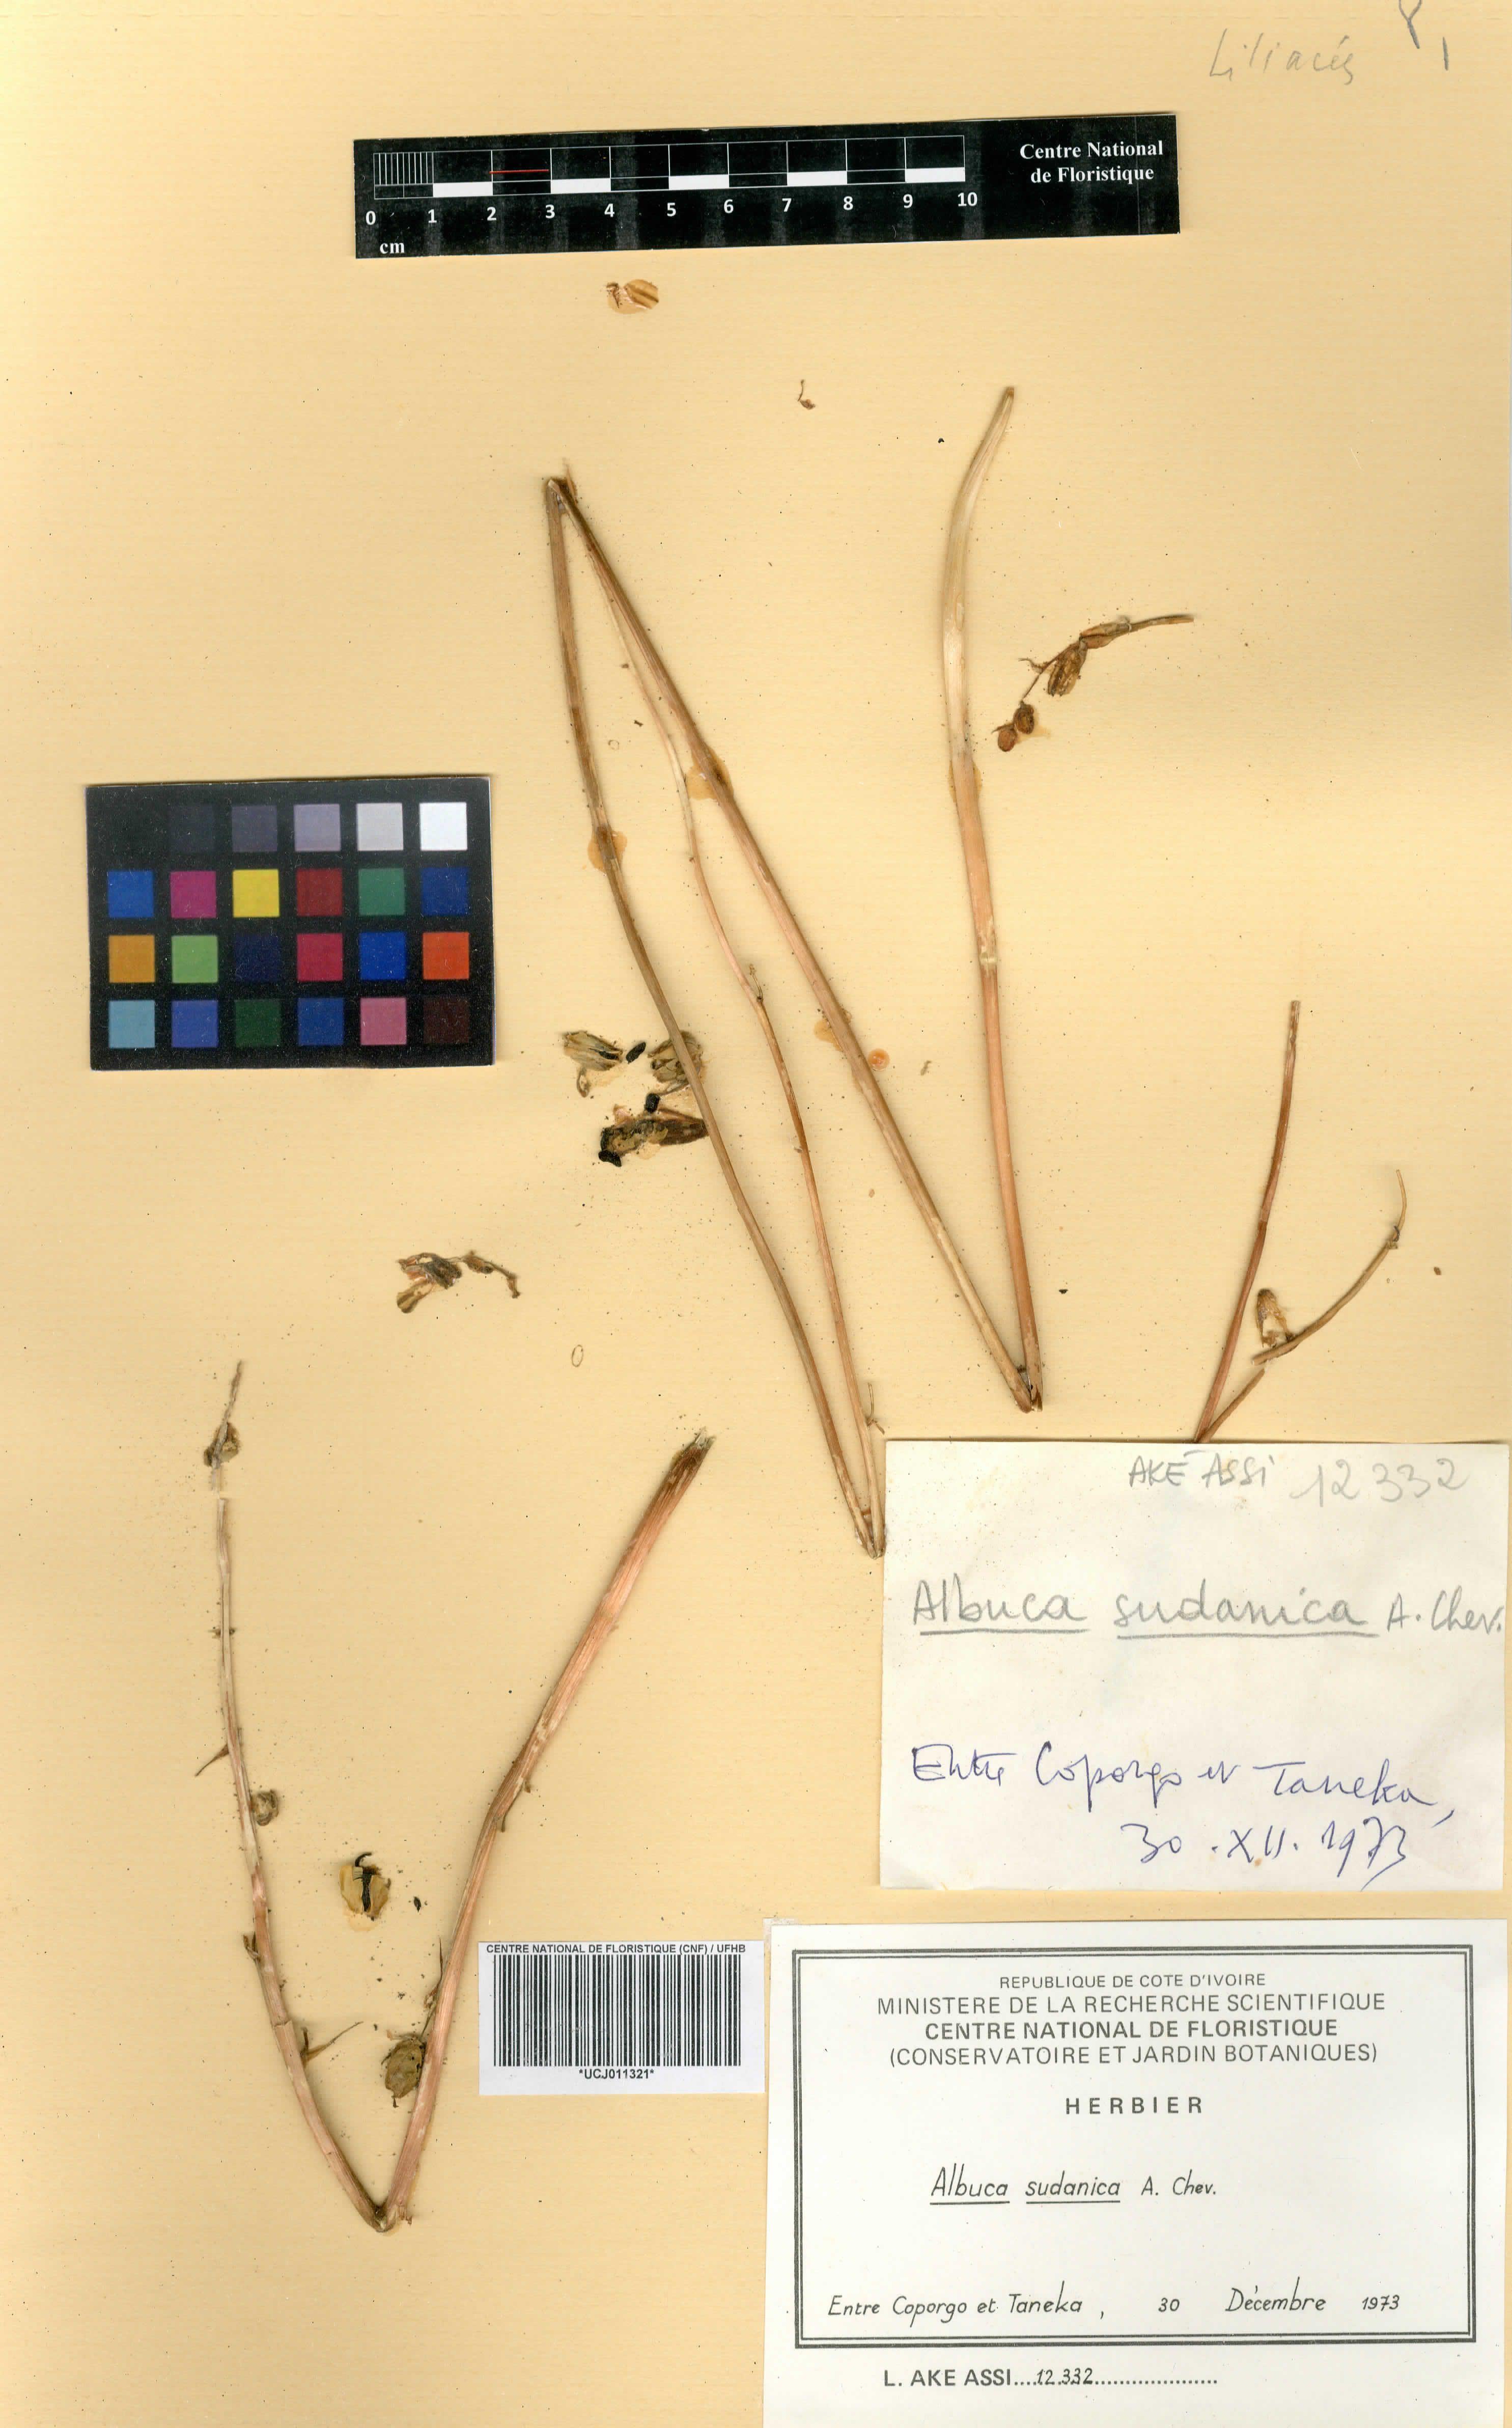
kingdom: Plantae
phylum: Tracheophyta
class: Liliopsida
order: Asparagales
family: Asparagaceae
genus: Albuca
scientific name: Albuca sudanica
